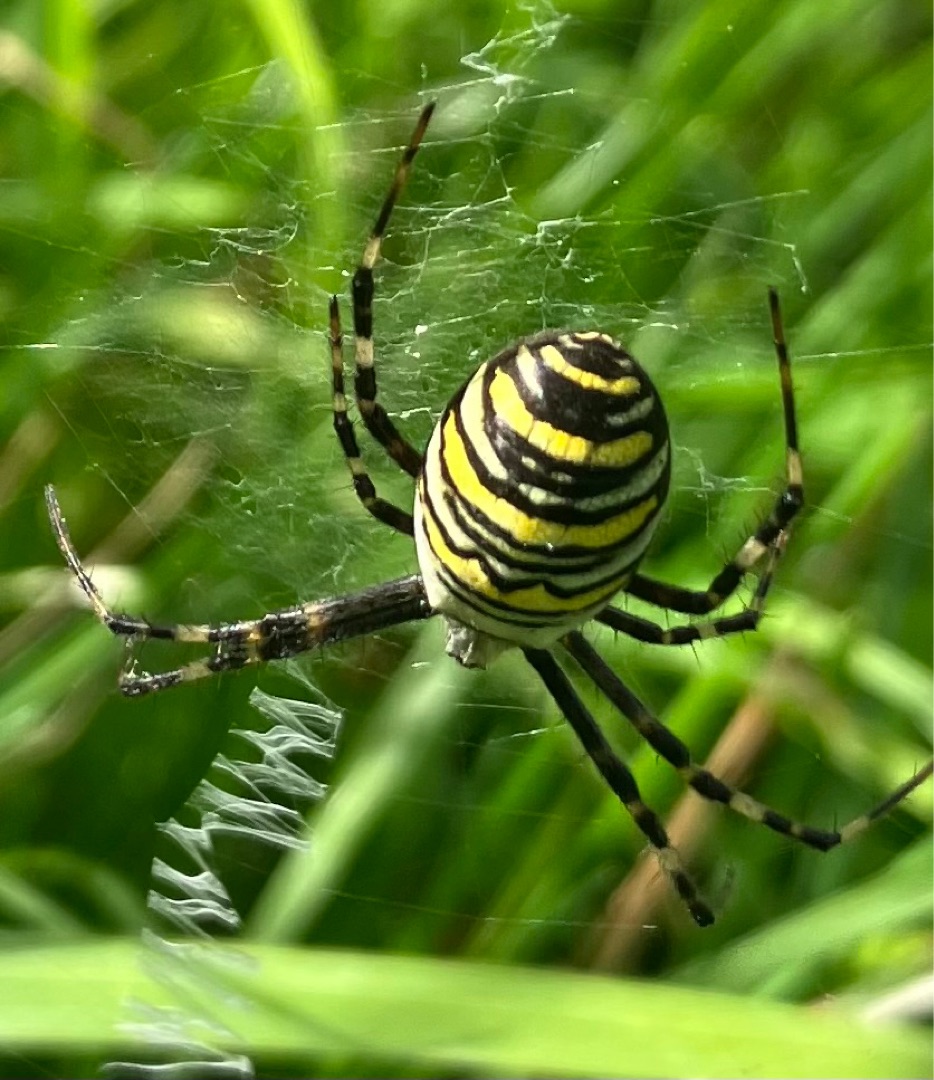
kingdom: Animalia
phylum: Arthropoda
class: Arachnida
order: Araneae
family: Araneidae
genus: Argiope
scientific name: Argiope bruennichi
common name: Hvepseedderkop
